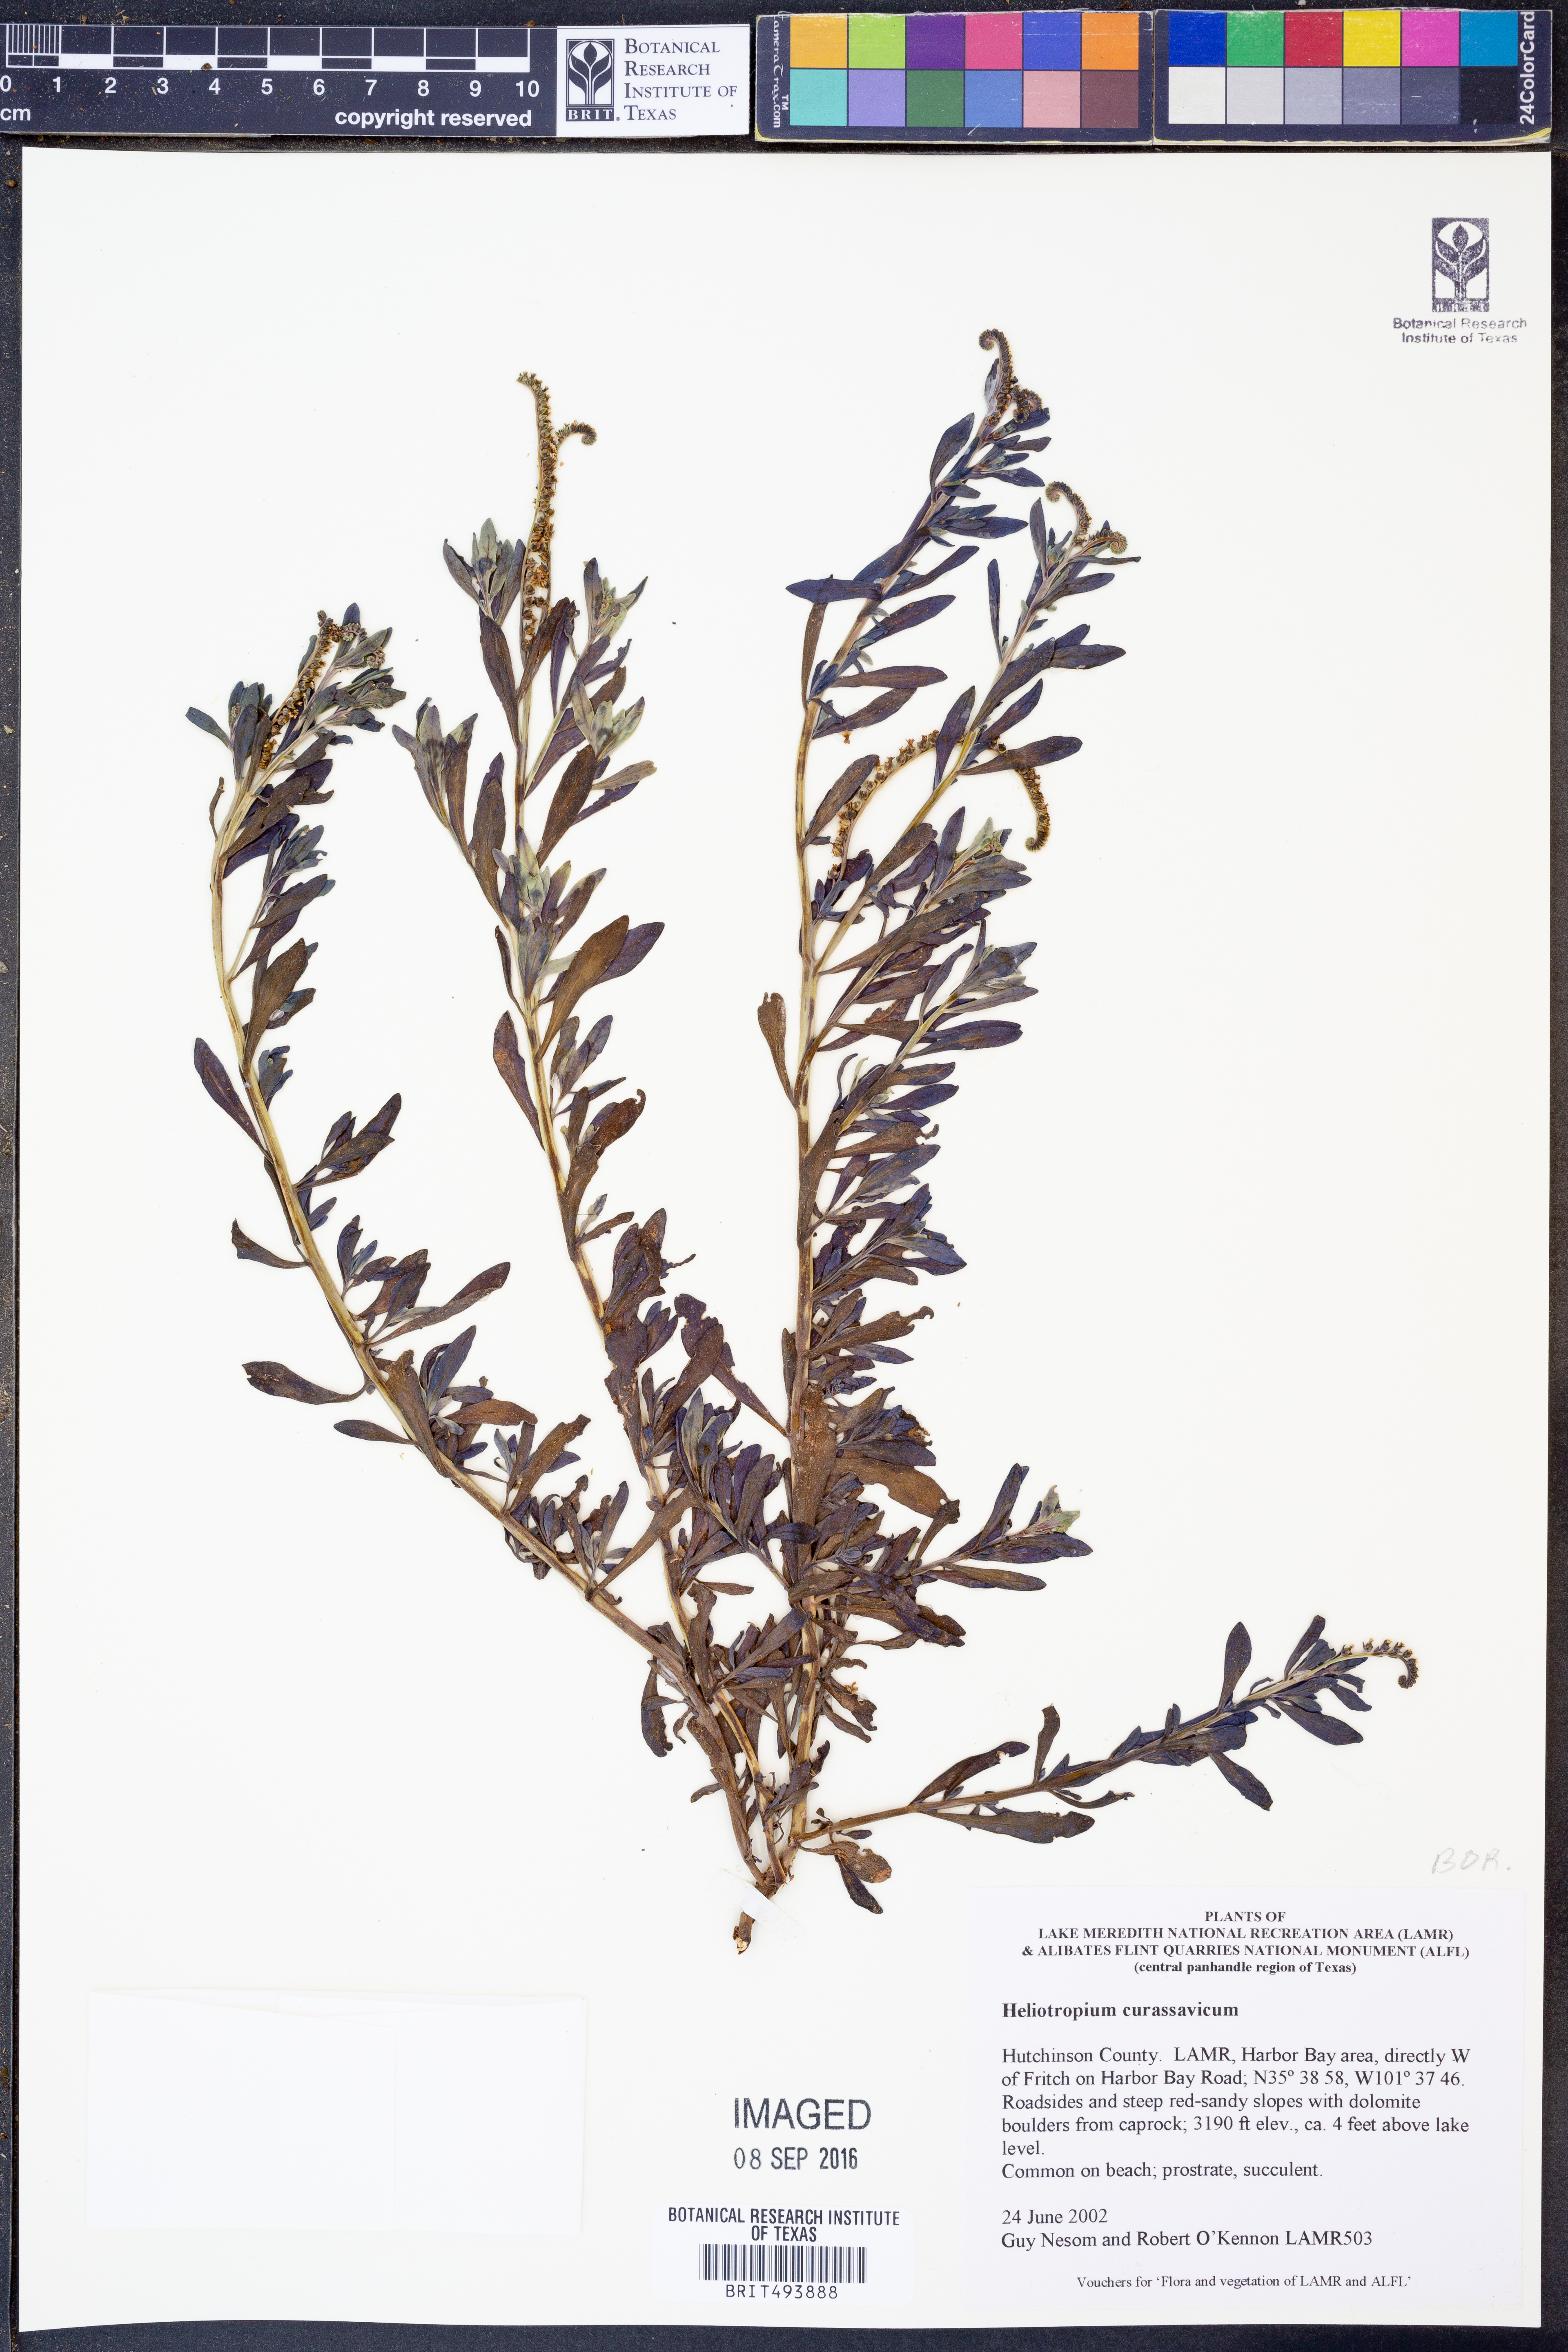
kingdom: Plantae
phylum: Tracheophyta
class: Magnoliopsida
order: Boraginales
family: Heliotropiaceae
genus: Heliotropium
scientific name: Heliotropium curassavicum
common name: Seaside heliotrope
